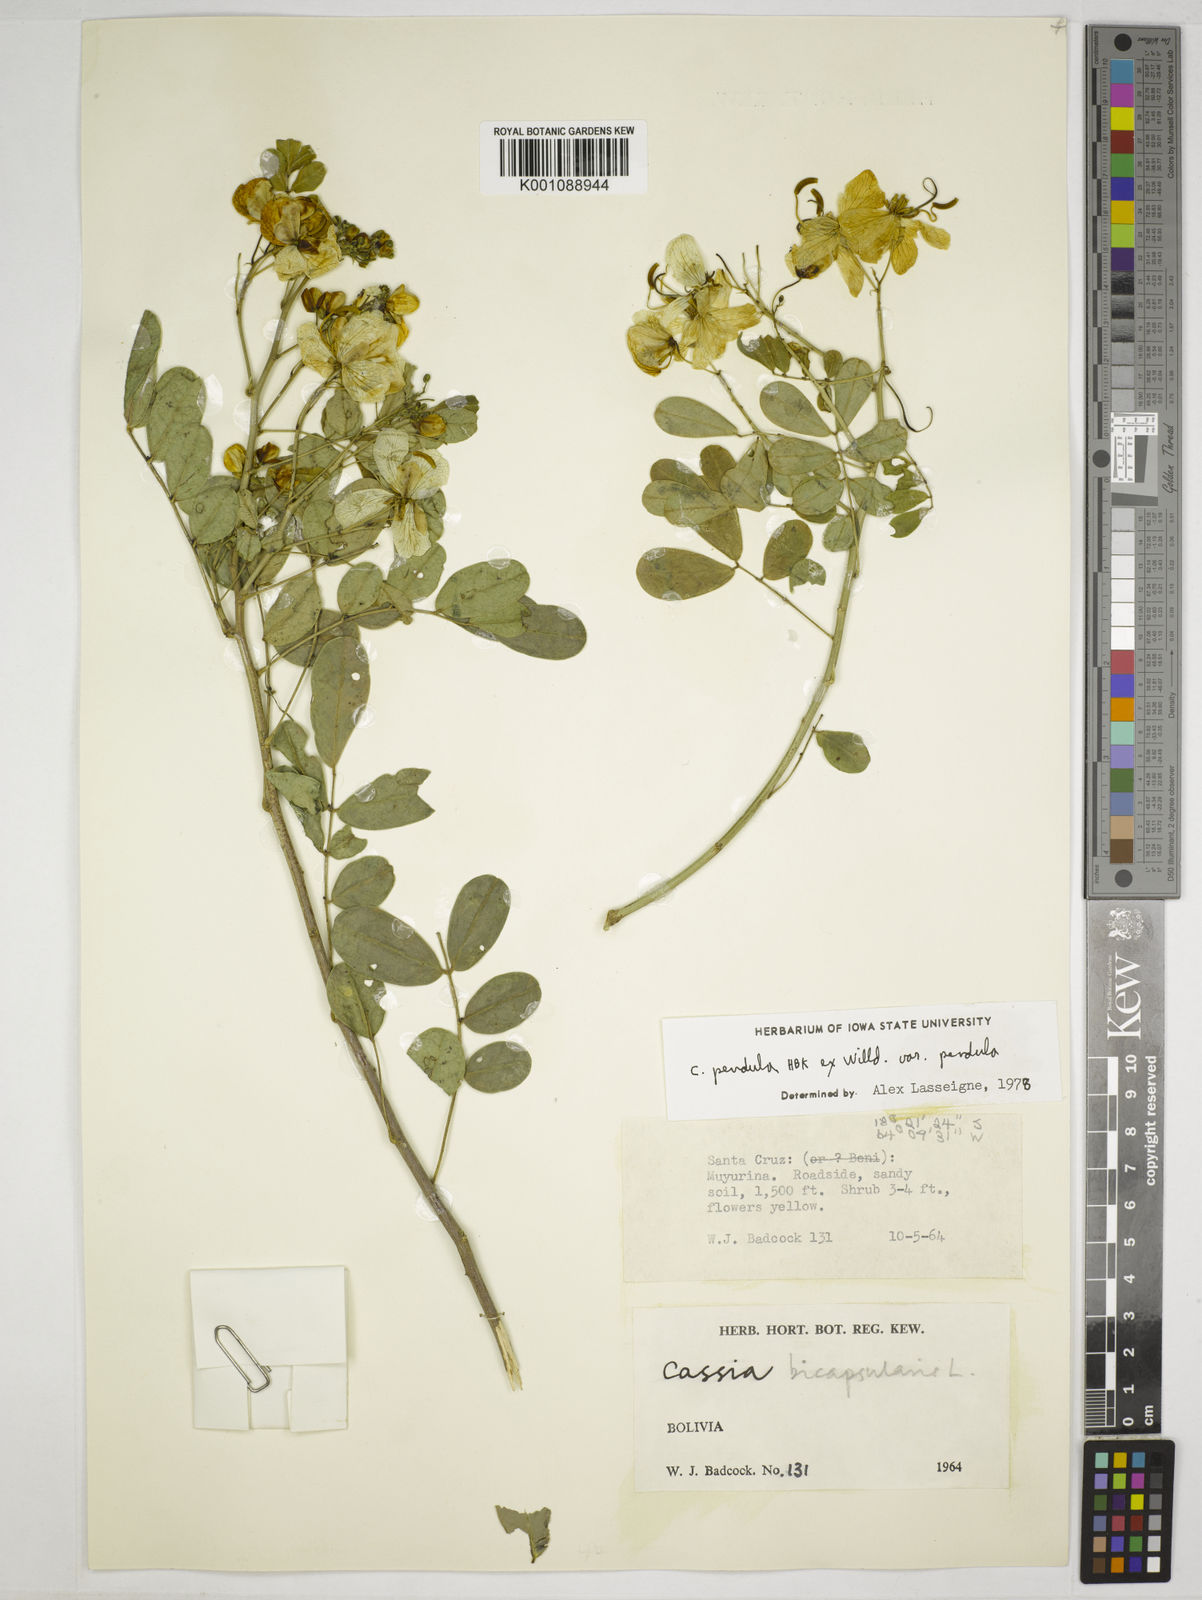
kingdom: Plantae
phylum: Tracheophyta
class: Magnoliopsida
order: Fabales
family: Fabaceae
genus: Senna
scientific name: Senna pendula
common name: Easter cassia
